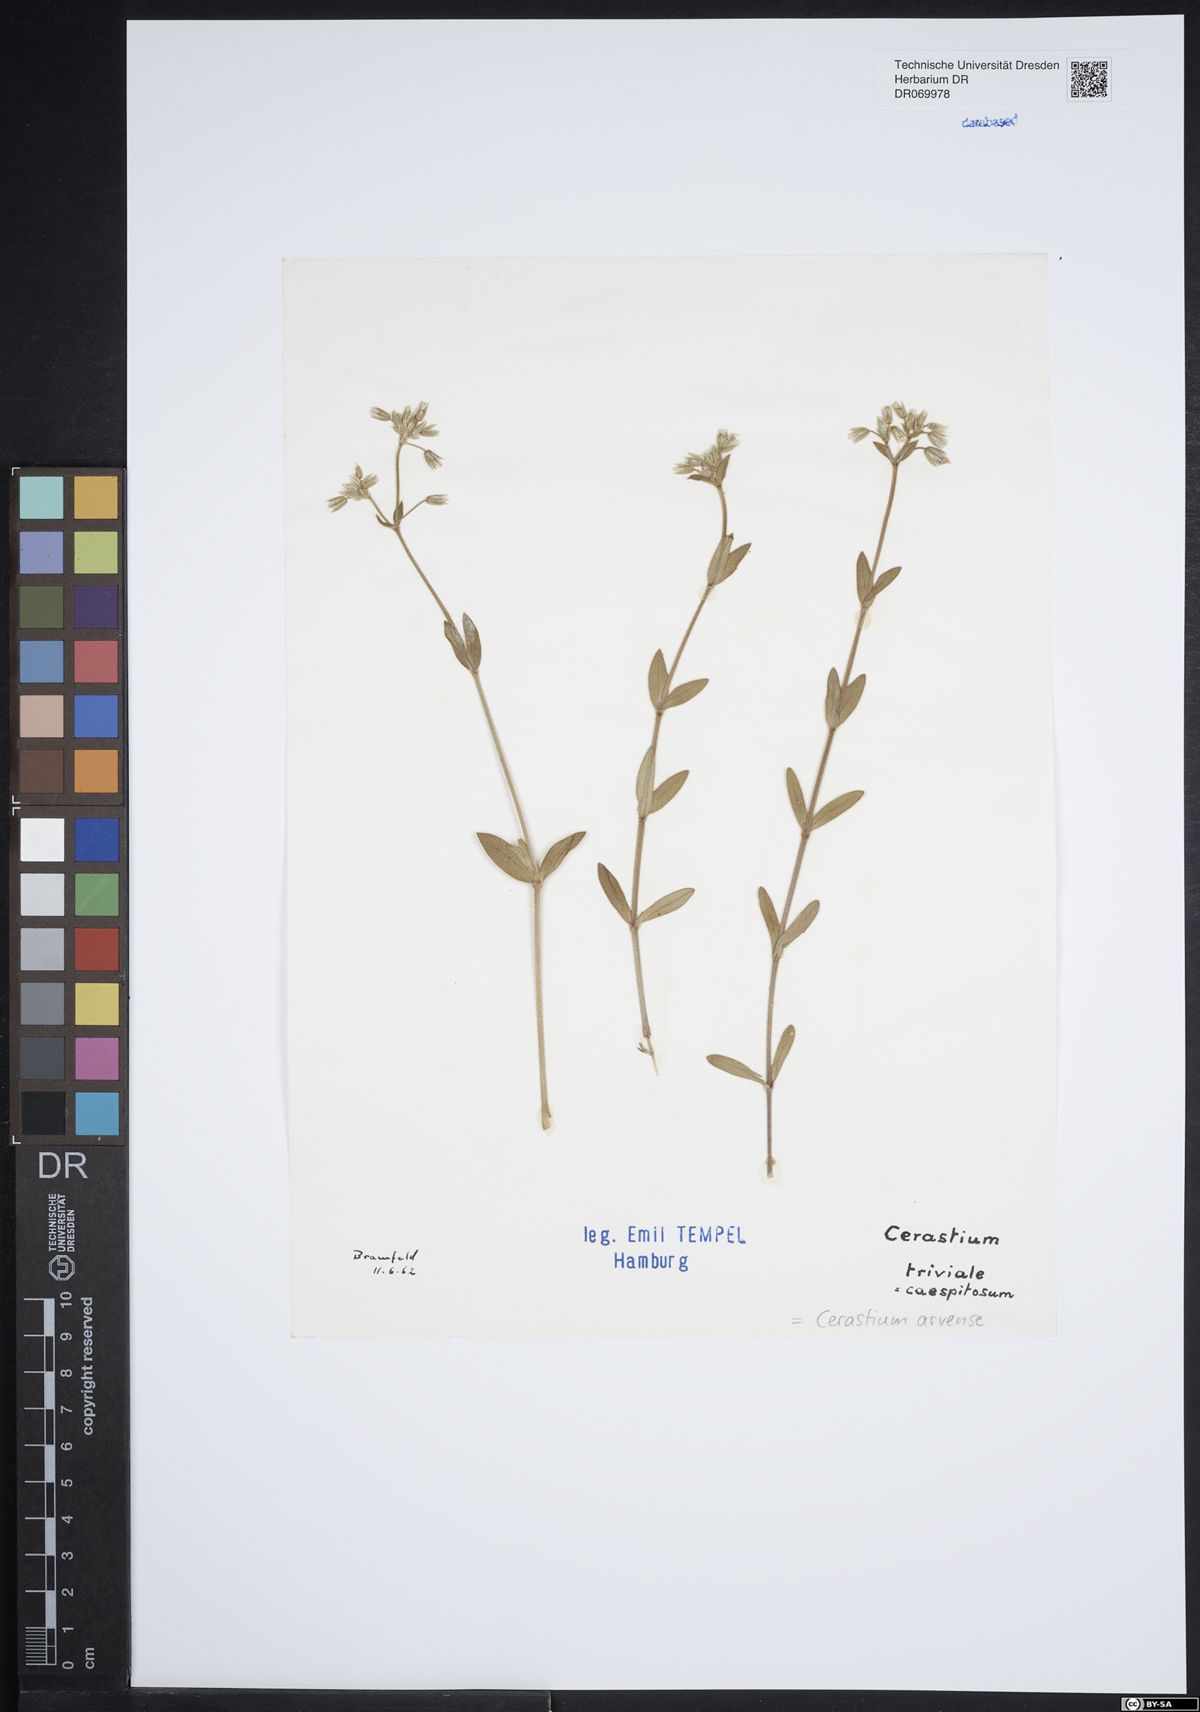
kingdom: Plantae
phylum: Tracheophyta
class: Magnoliopsida
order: Caryophyllales
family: Caryophyllaceae
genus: Cerastium
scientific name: Cerastium arvense
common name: Field mouse-ear
